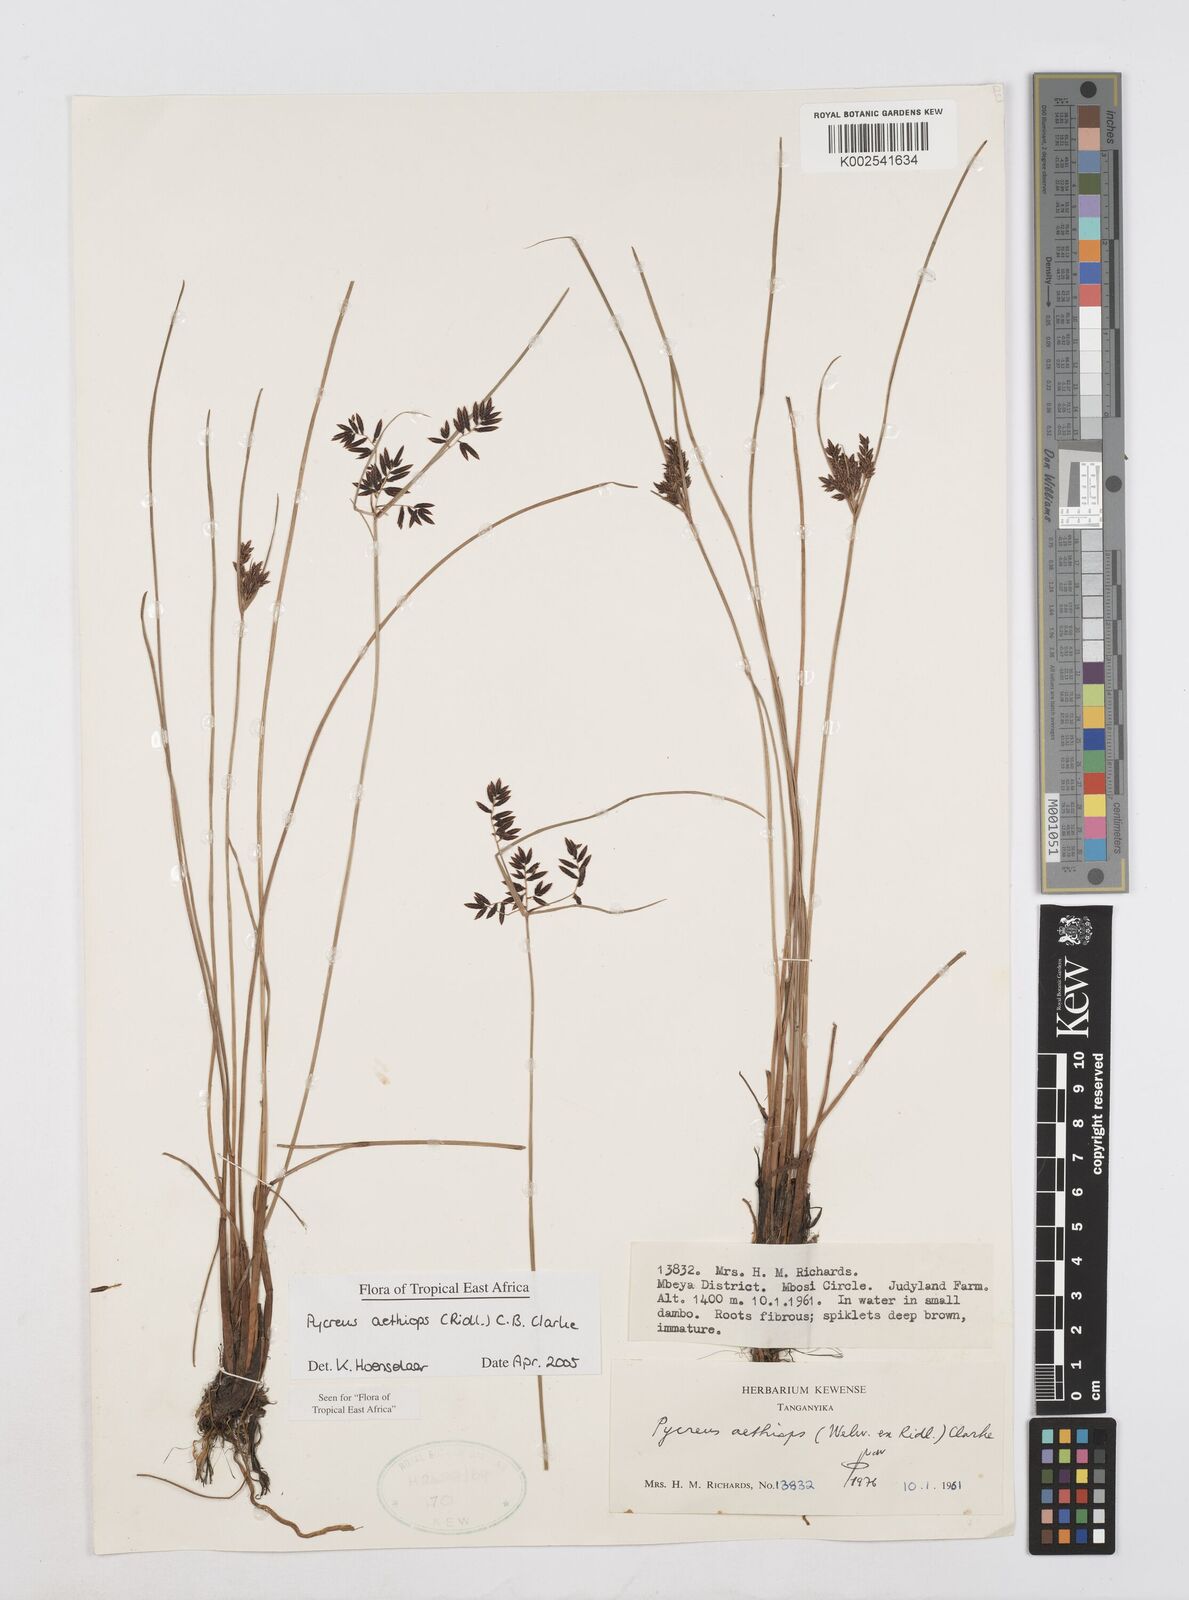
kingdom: Plantae
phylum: Tracheophyta
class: Liliopsida
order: Poales
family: Cyperaceae
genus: Cyperus
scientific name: Cyperus aethiops
